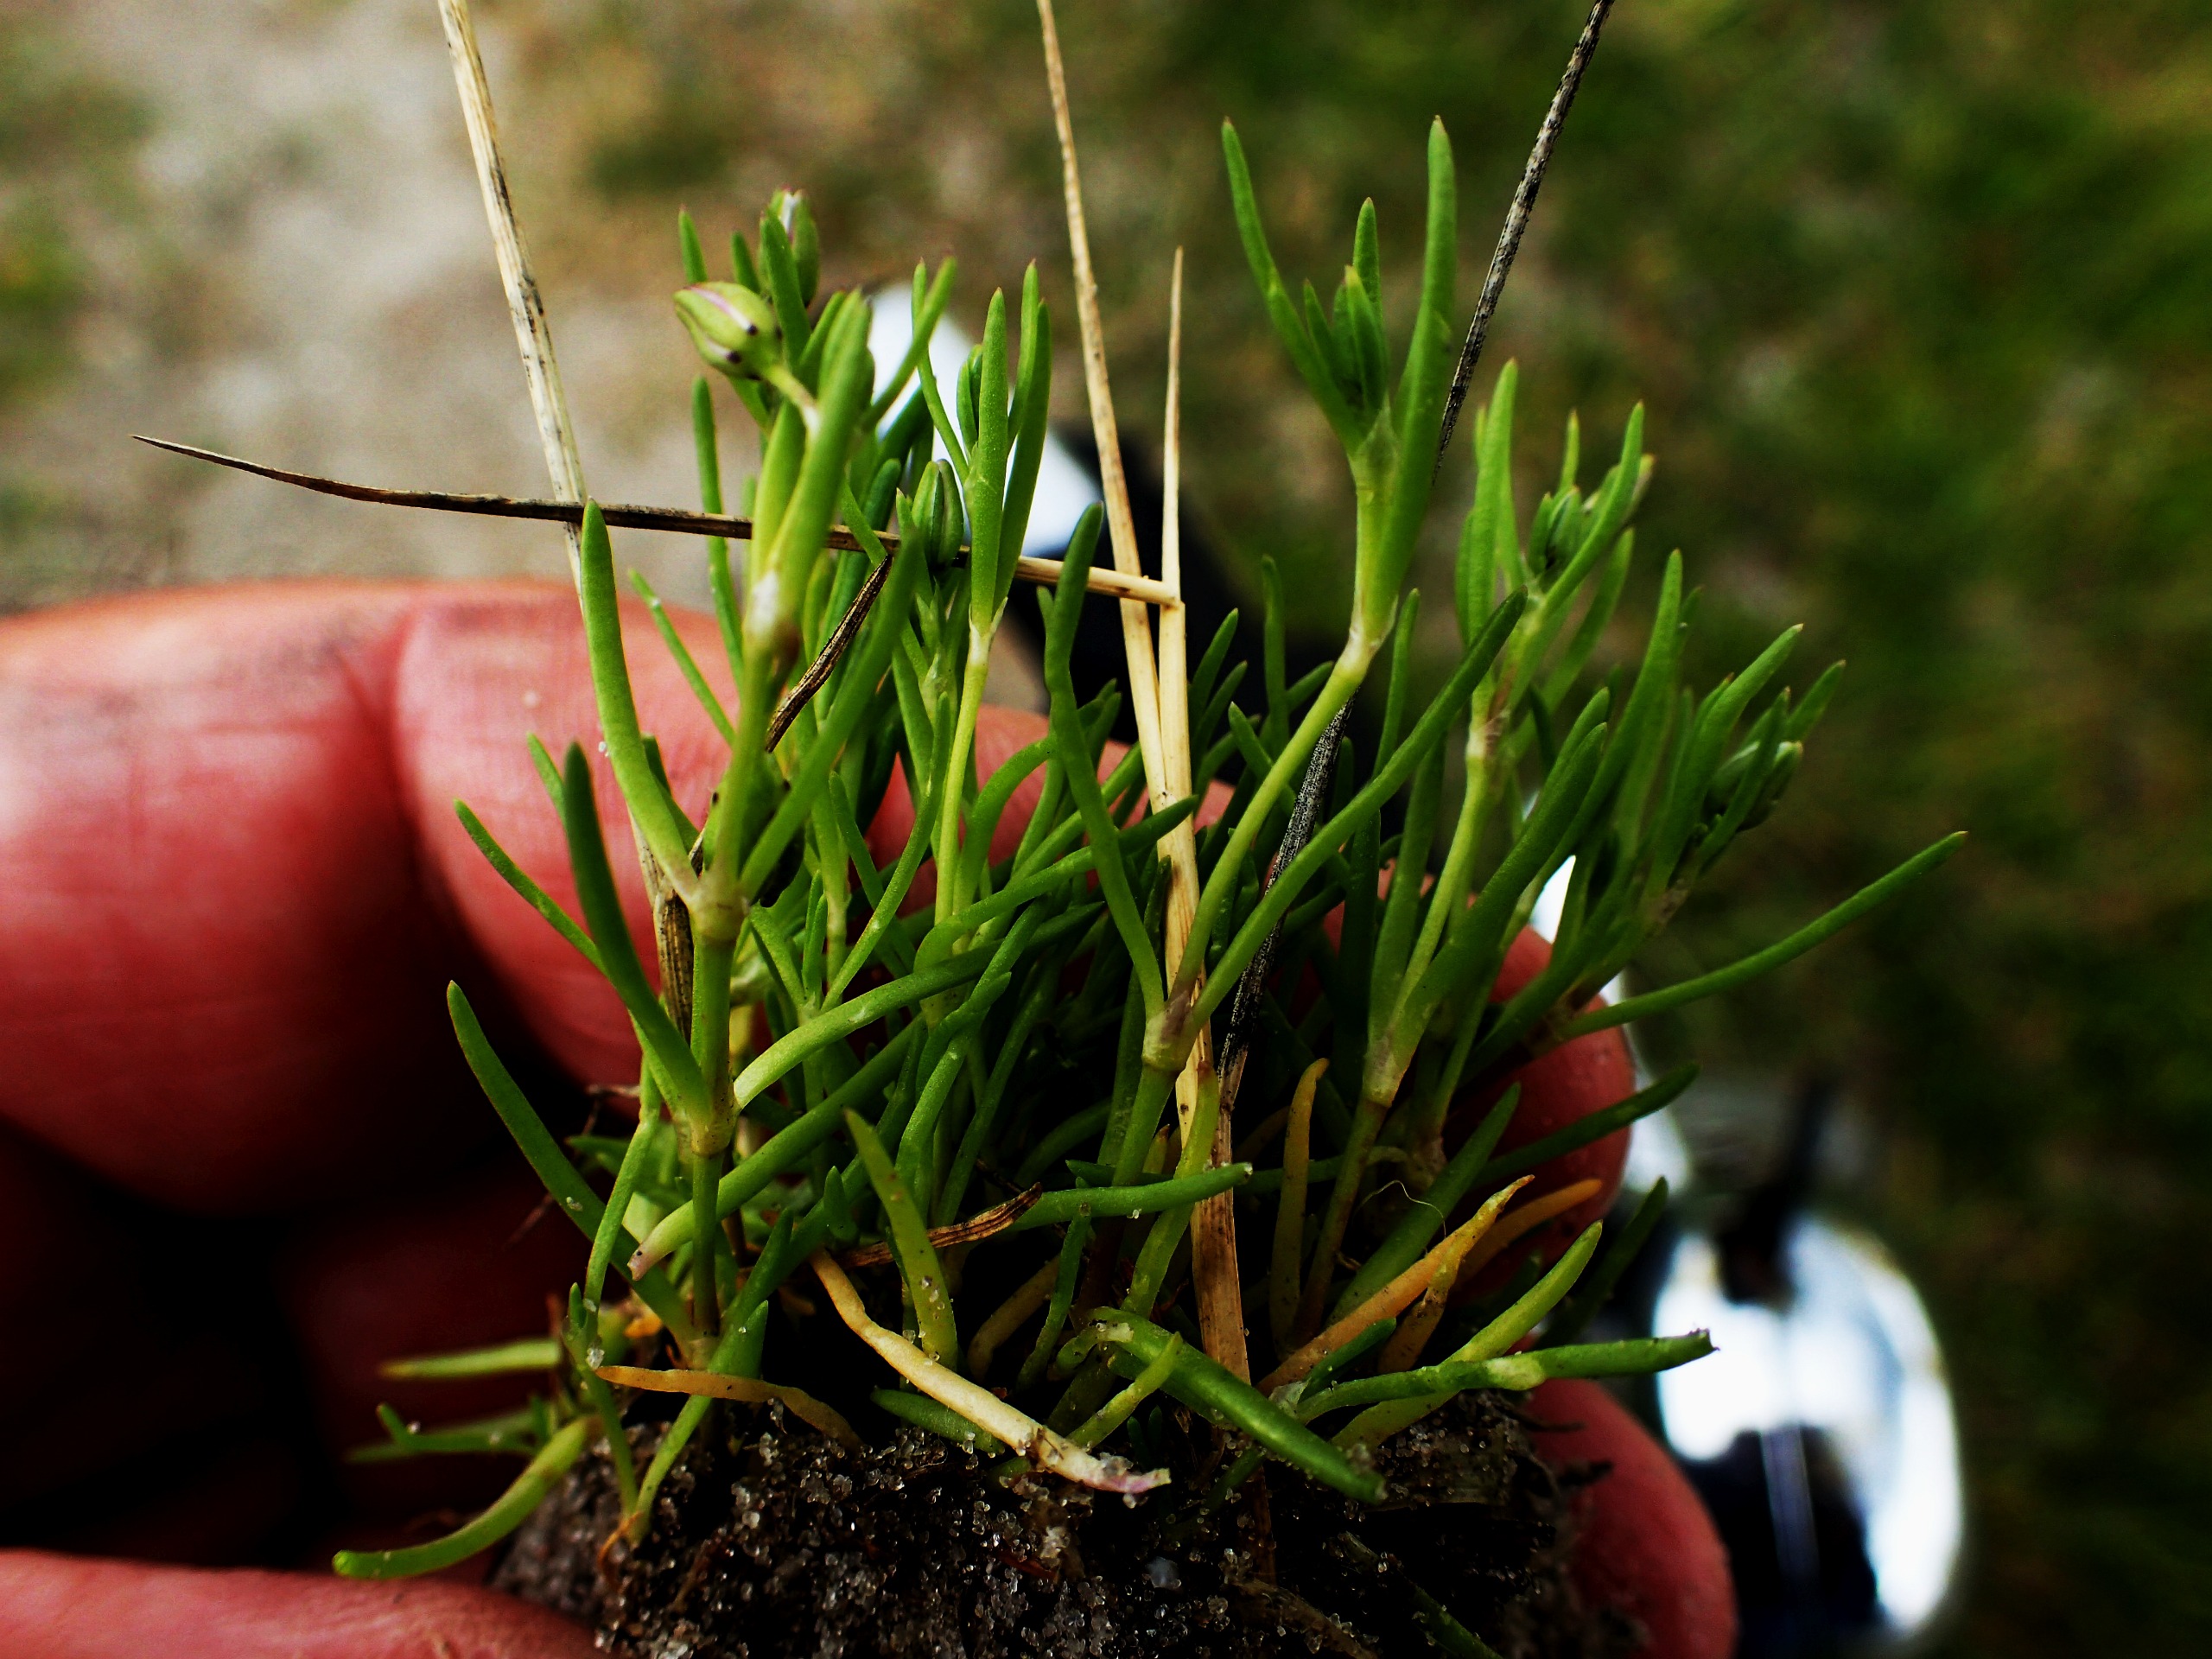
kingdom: Plantae
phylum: Tracheophyta
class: Magnoliopsida
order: Caryophyllales
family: Caryophyllaceae
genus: Spergularia
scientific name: Spergularia
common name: Hindeknæslægten
